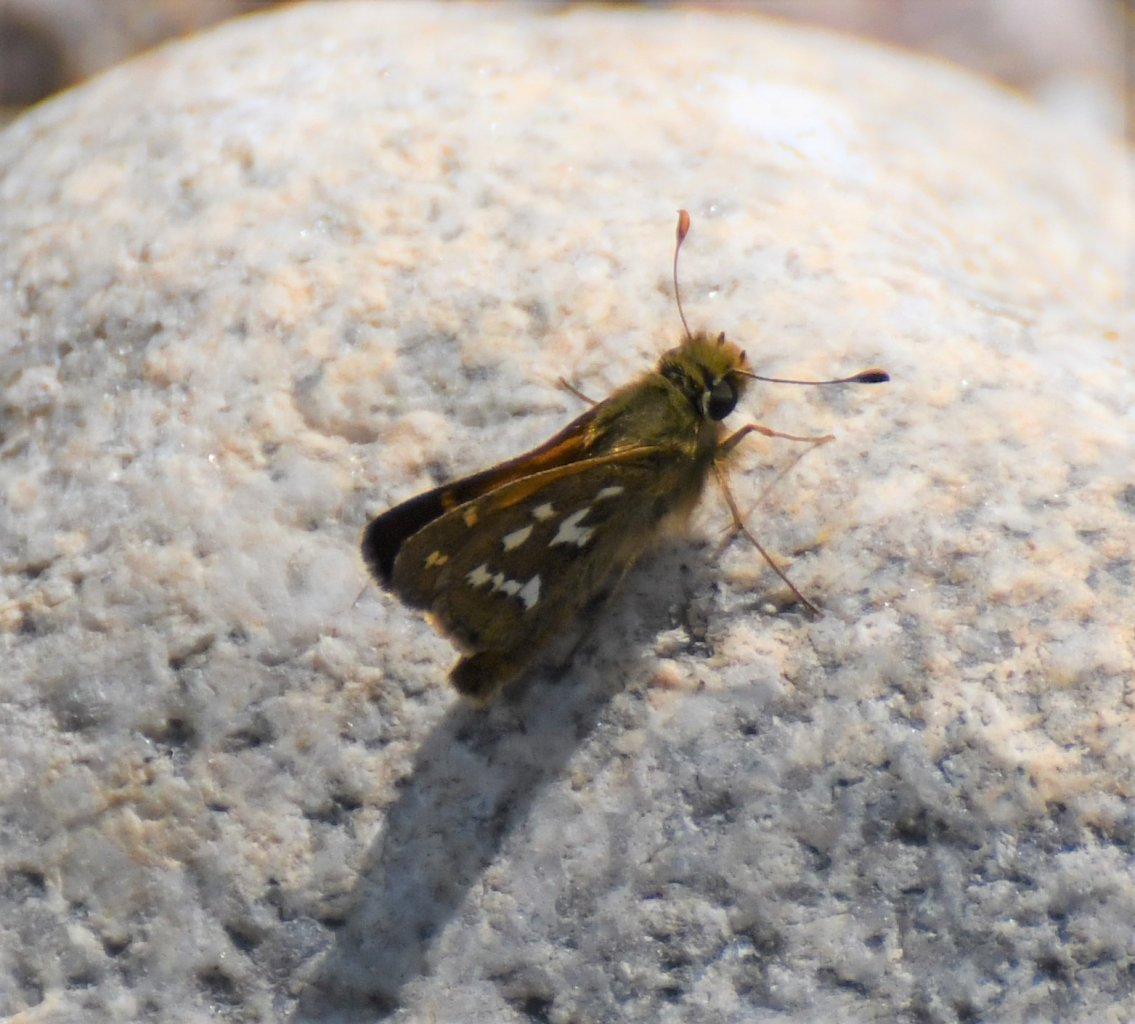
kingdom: Animalia
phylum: Arthropoda
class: Insecta
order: Lepidoptera
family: Hesperiidae
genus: Hesperia
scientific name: Hesperia comma
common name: Common Branded Skipper
